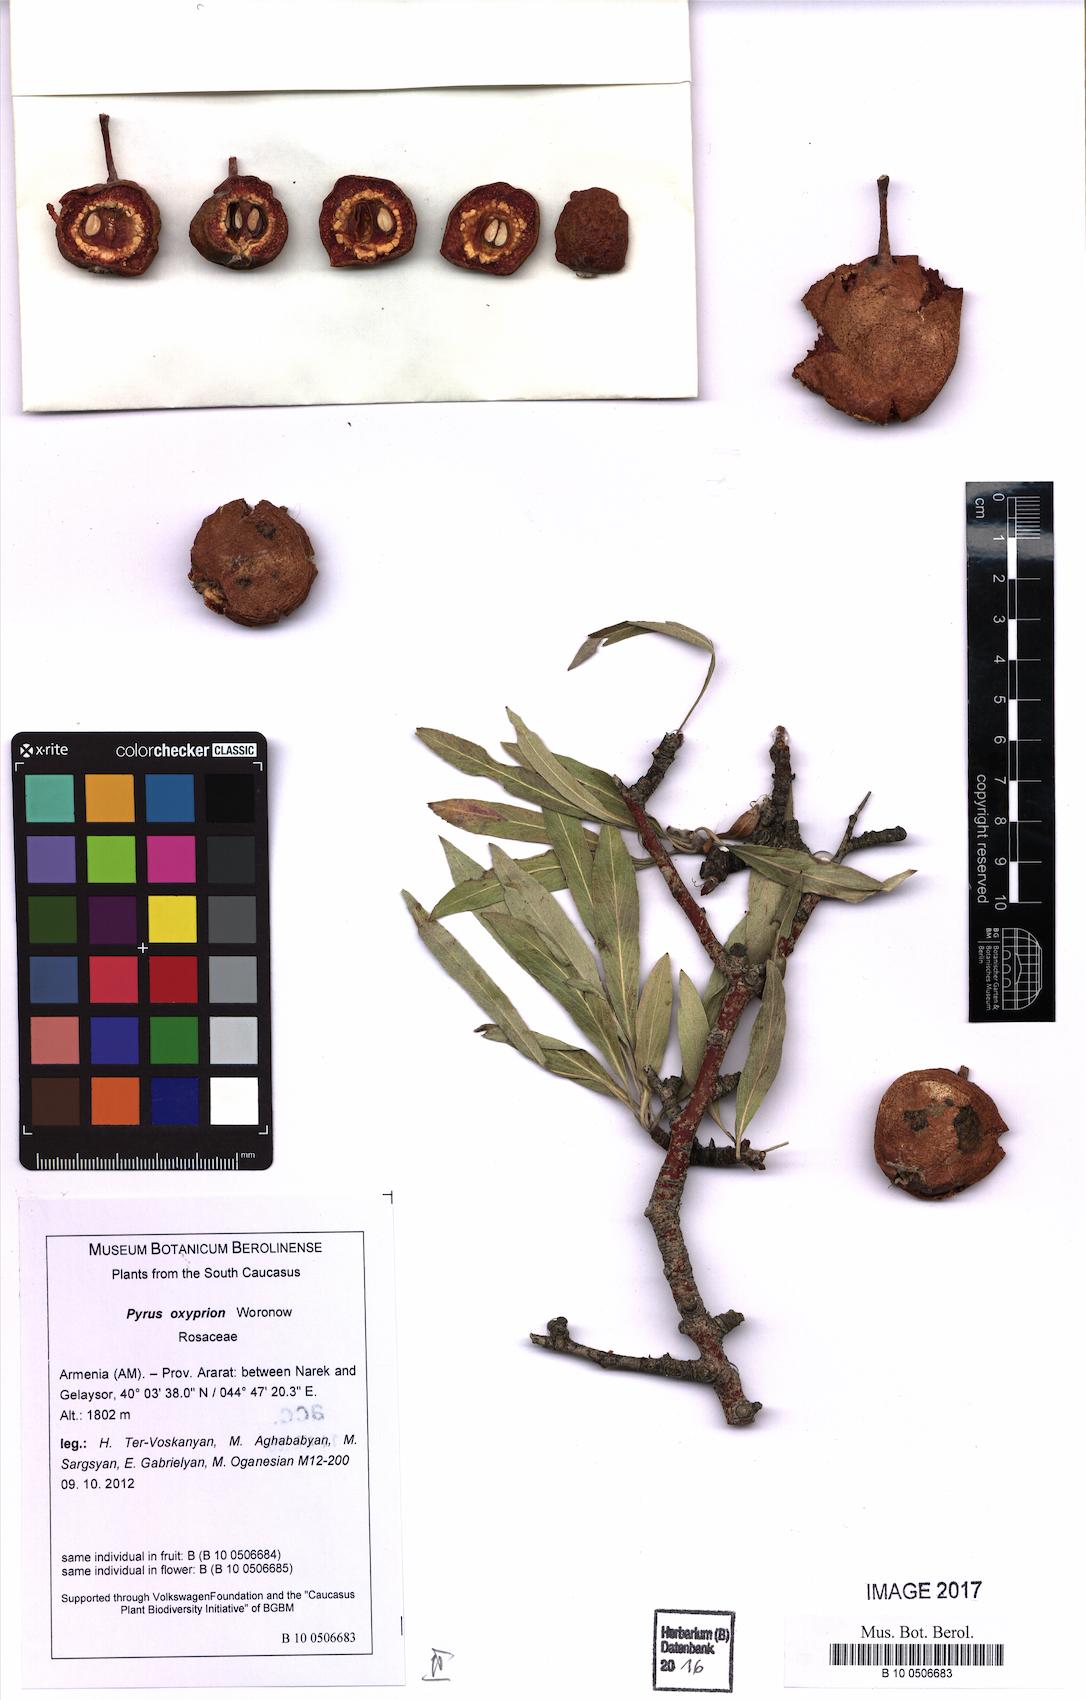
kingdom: Plantae
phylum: Tracheophyta
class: Magnoliopsida
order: Rosales
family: Rosaceae
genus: Pyrus
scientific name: Pyrus oxyprion
